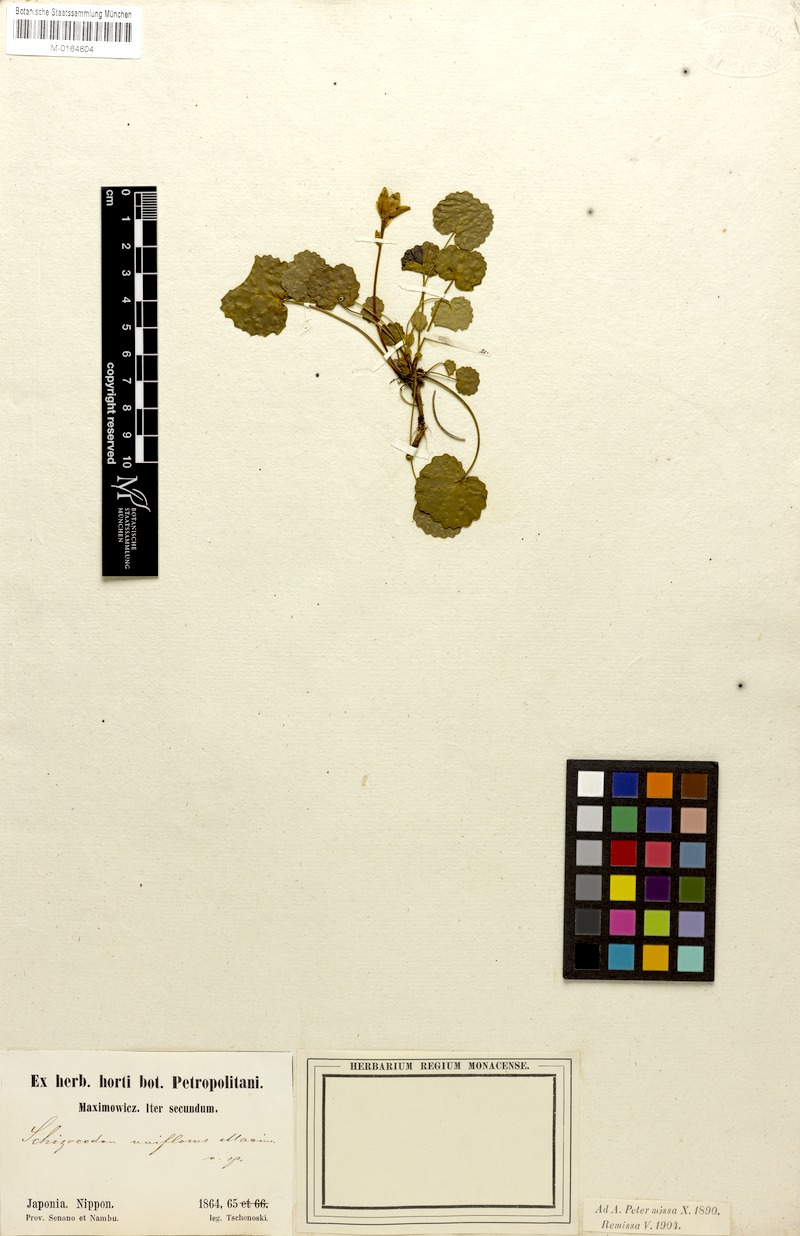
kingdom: Plantae
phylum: Tracheophyta
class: Magnoliopsida
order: Ericales
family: Diapensiaceae
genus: Shortia
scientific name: Shortia uniflora
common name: Nippon bells
